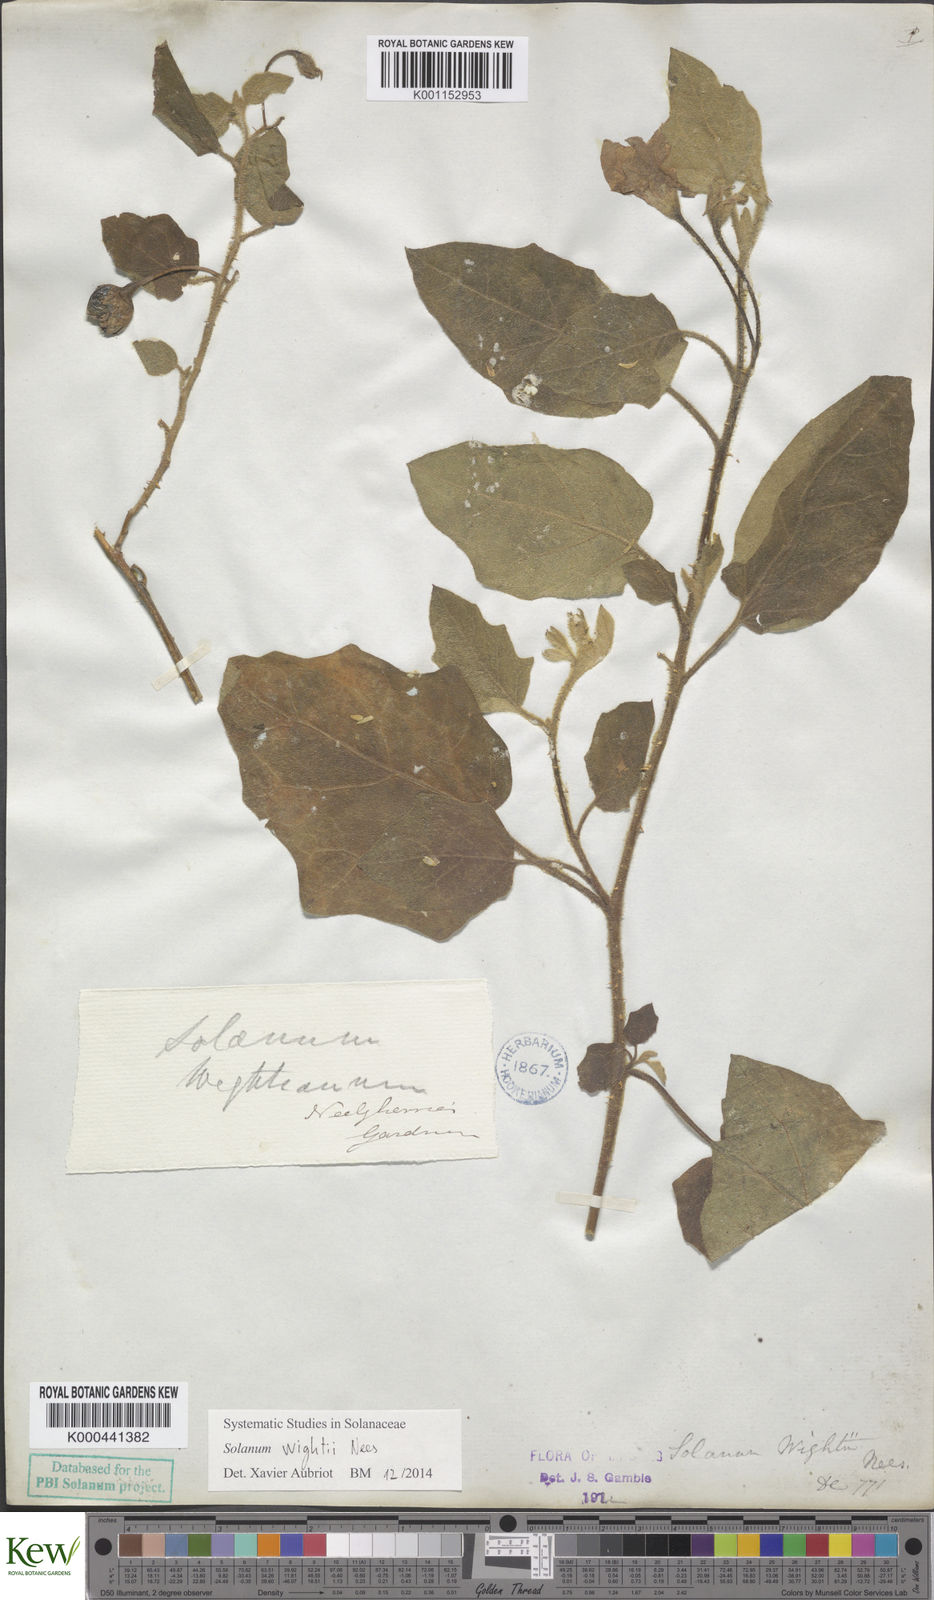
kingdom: Plantae
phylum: Tracheophyta
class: Magnoliopsida
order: Solanales
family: Solanaceae
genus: Solanum
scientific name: Solanum wightii
